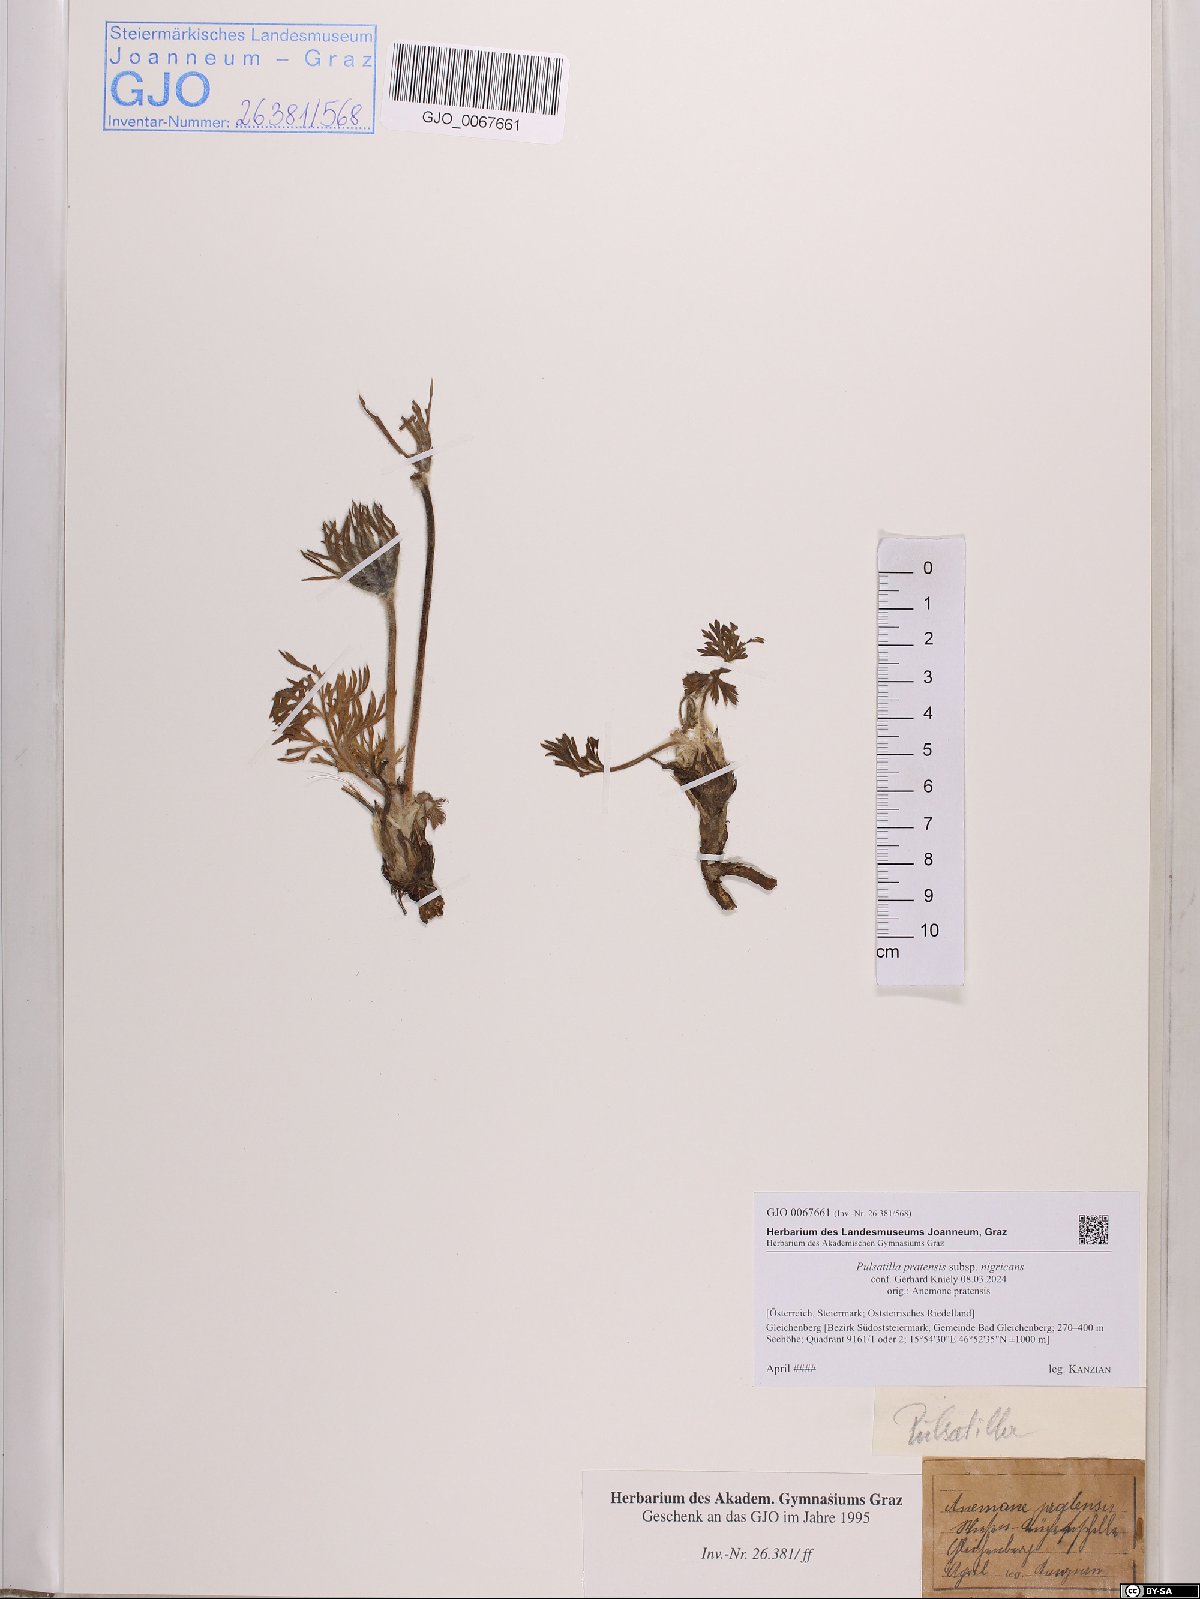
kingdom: Plantae
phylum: Tracheophyta
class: Magnoliopsida
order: Ranunculales
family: Ranunculaceae
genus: Pulsatilla
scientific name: Pulsatilla pratensis
